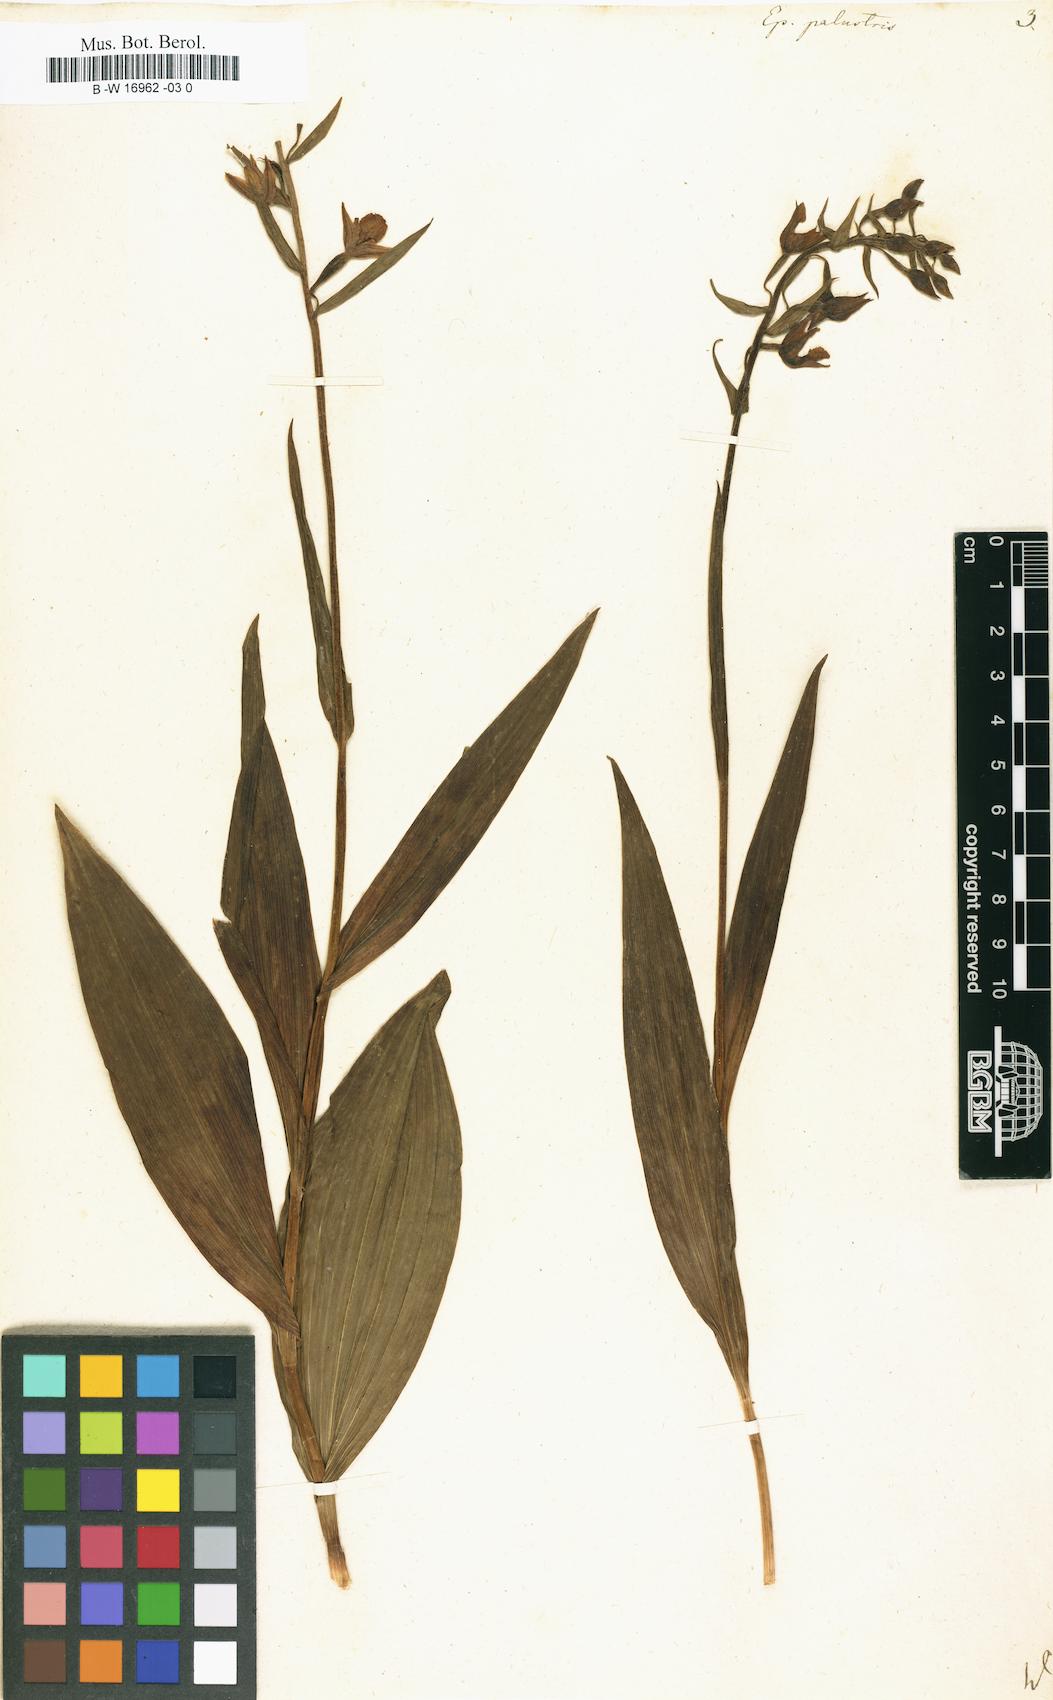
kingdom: Plantae
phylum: Tracheophyta
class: Liliopsida
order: Asparagales
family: Orchidaceae
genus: Epipactis
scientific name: Epipactis palustris
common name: Marsh helleborine
